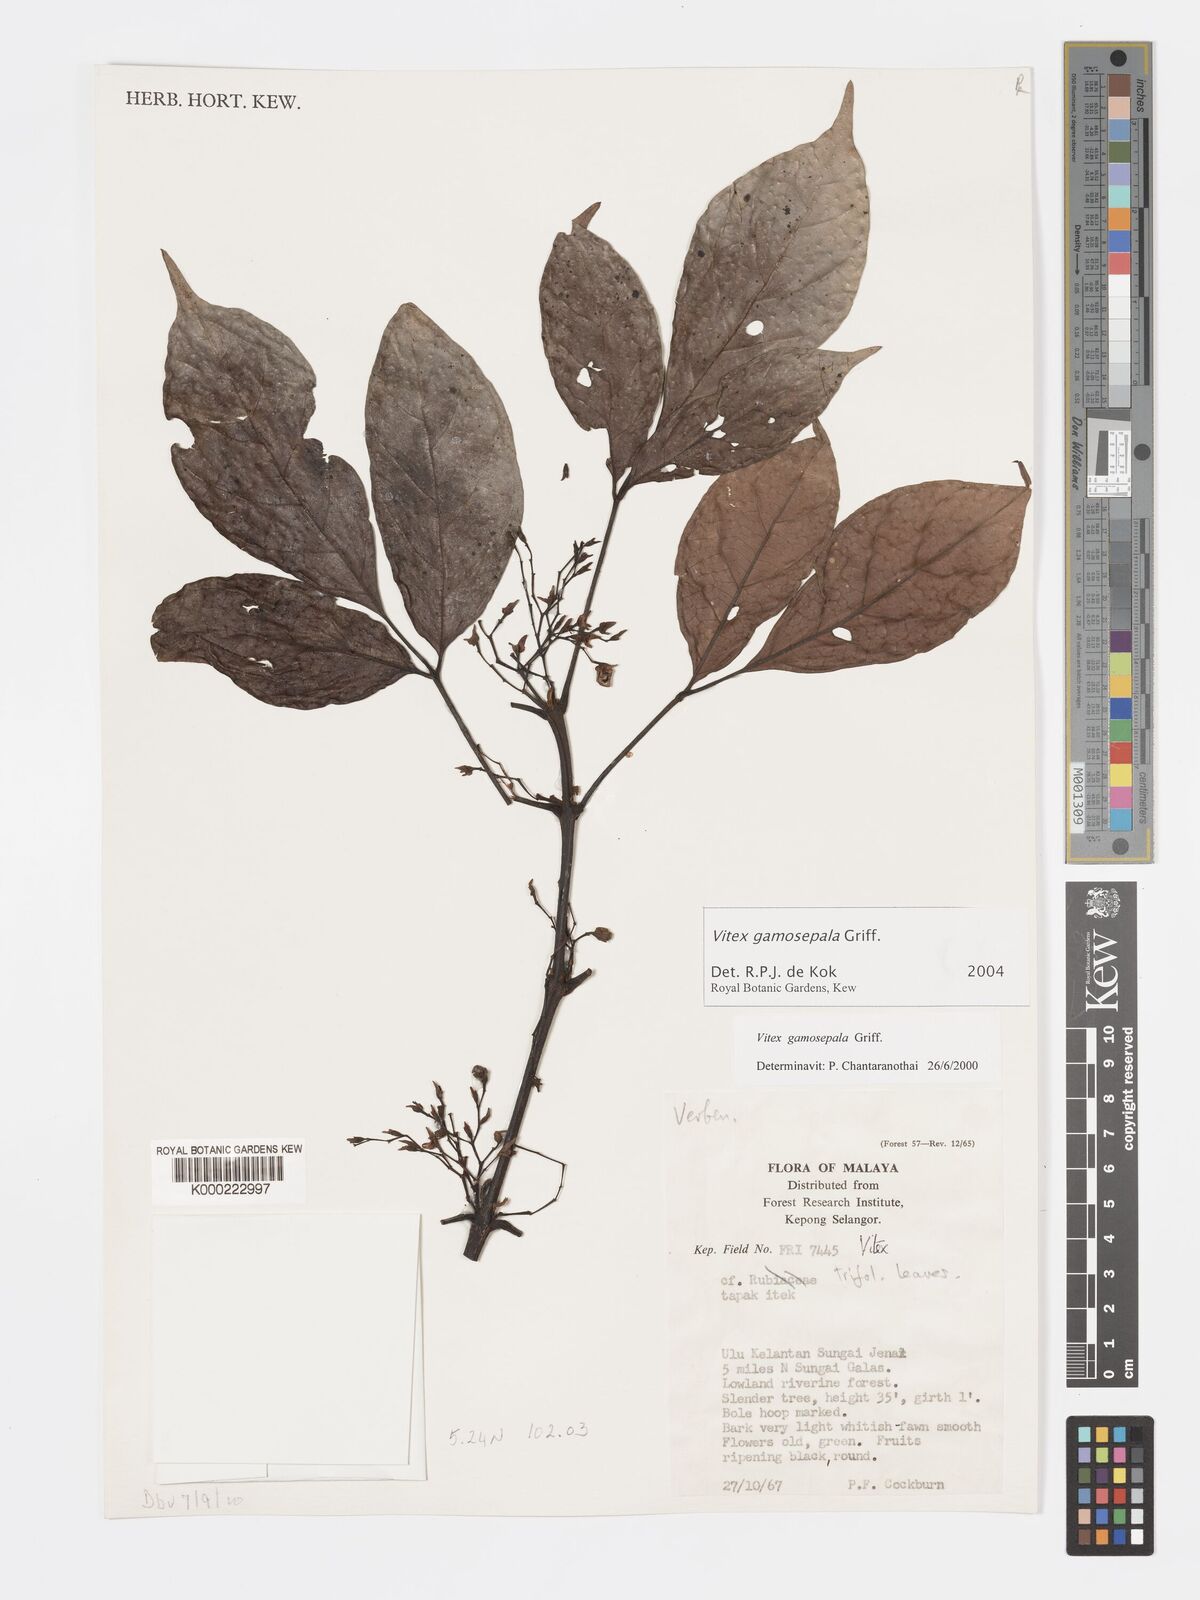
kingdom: Plantae
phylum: Tracheophyta
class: Magnoliopsida
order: Lamiales
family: Lamiaceae
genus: Vitex
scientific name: Vitex gamosepala
